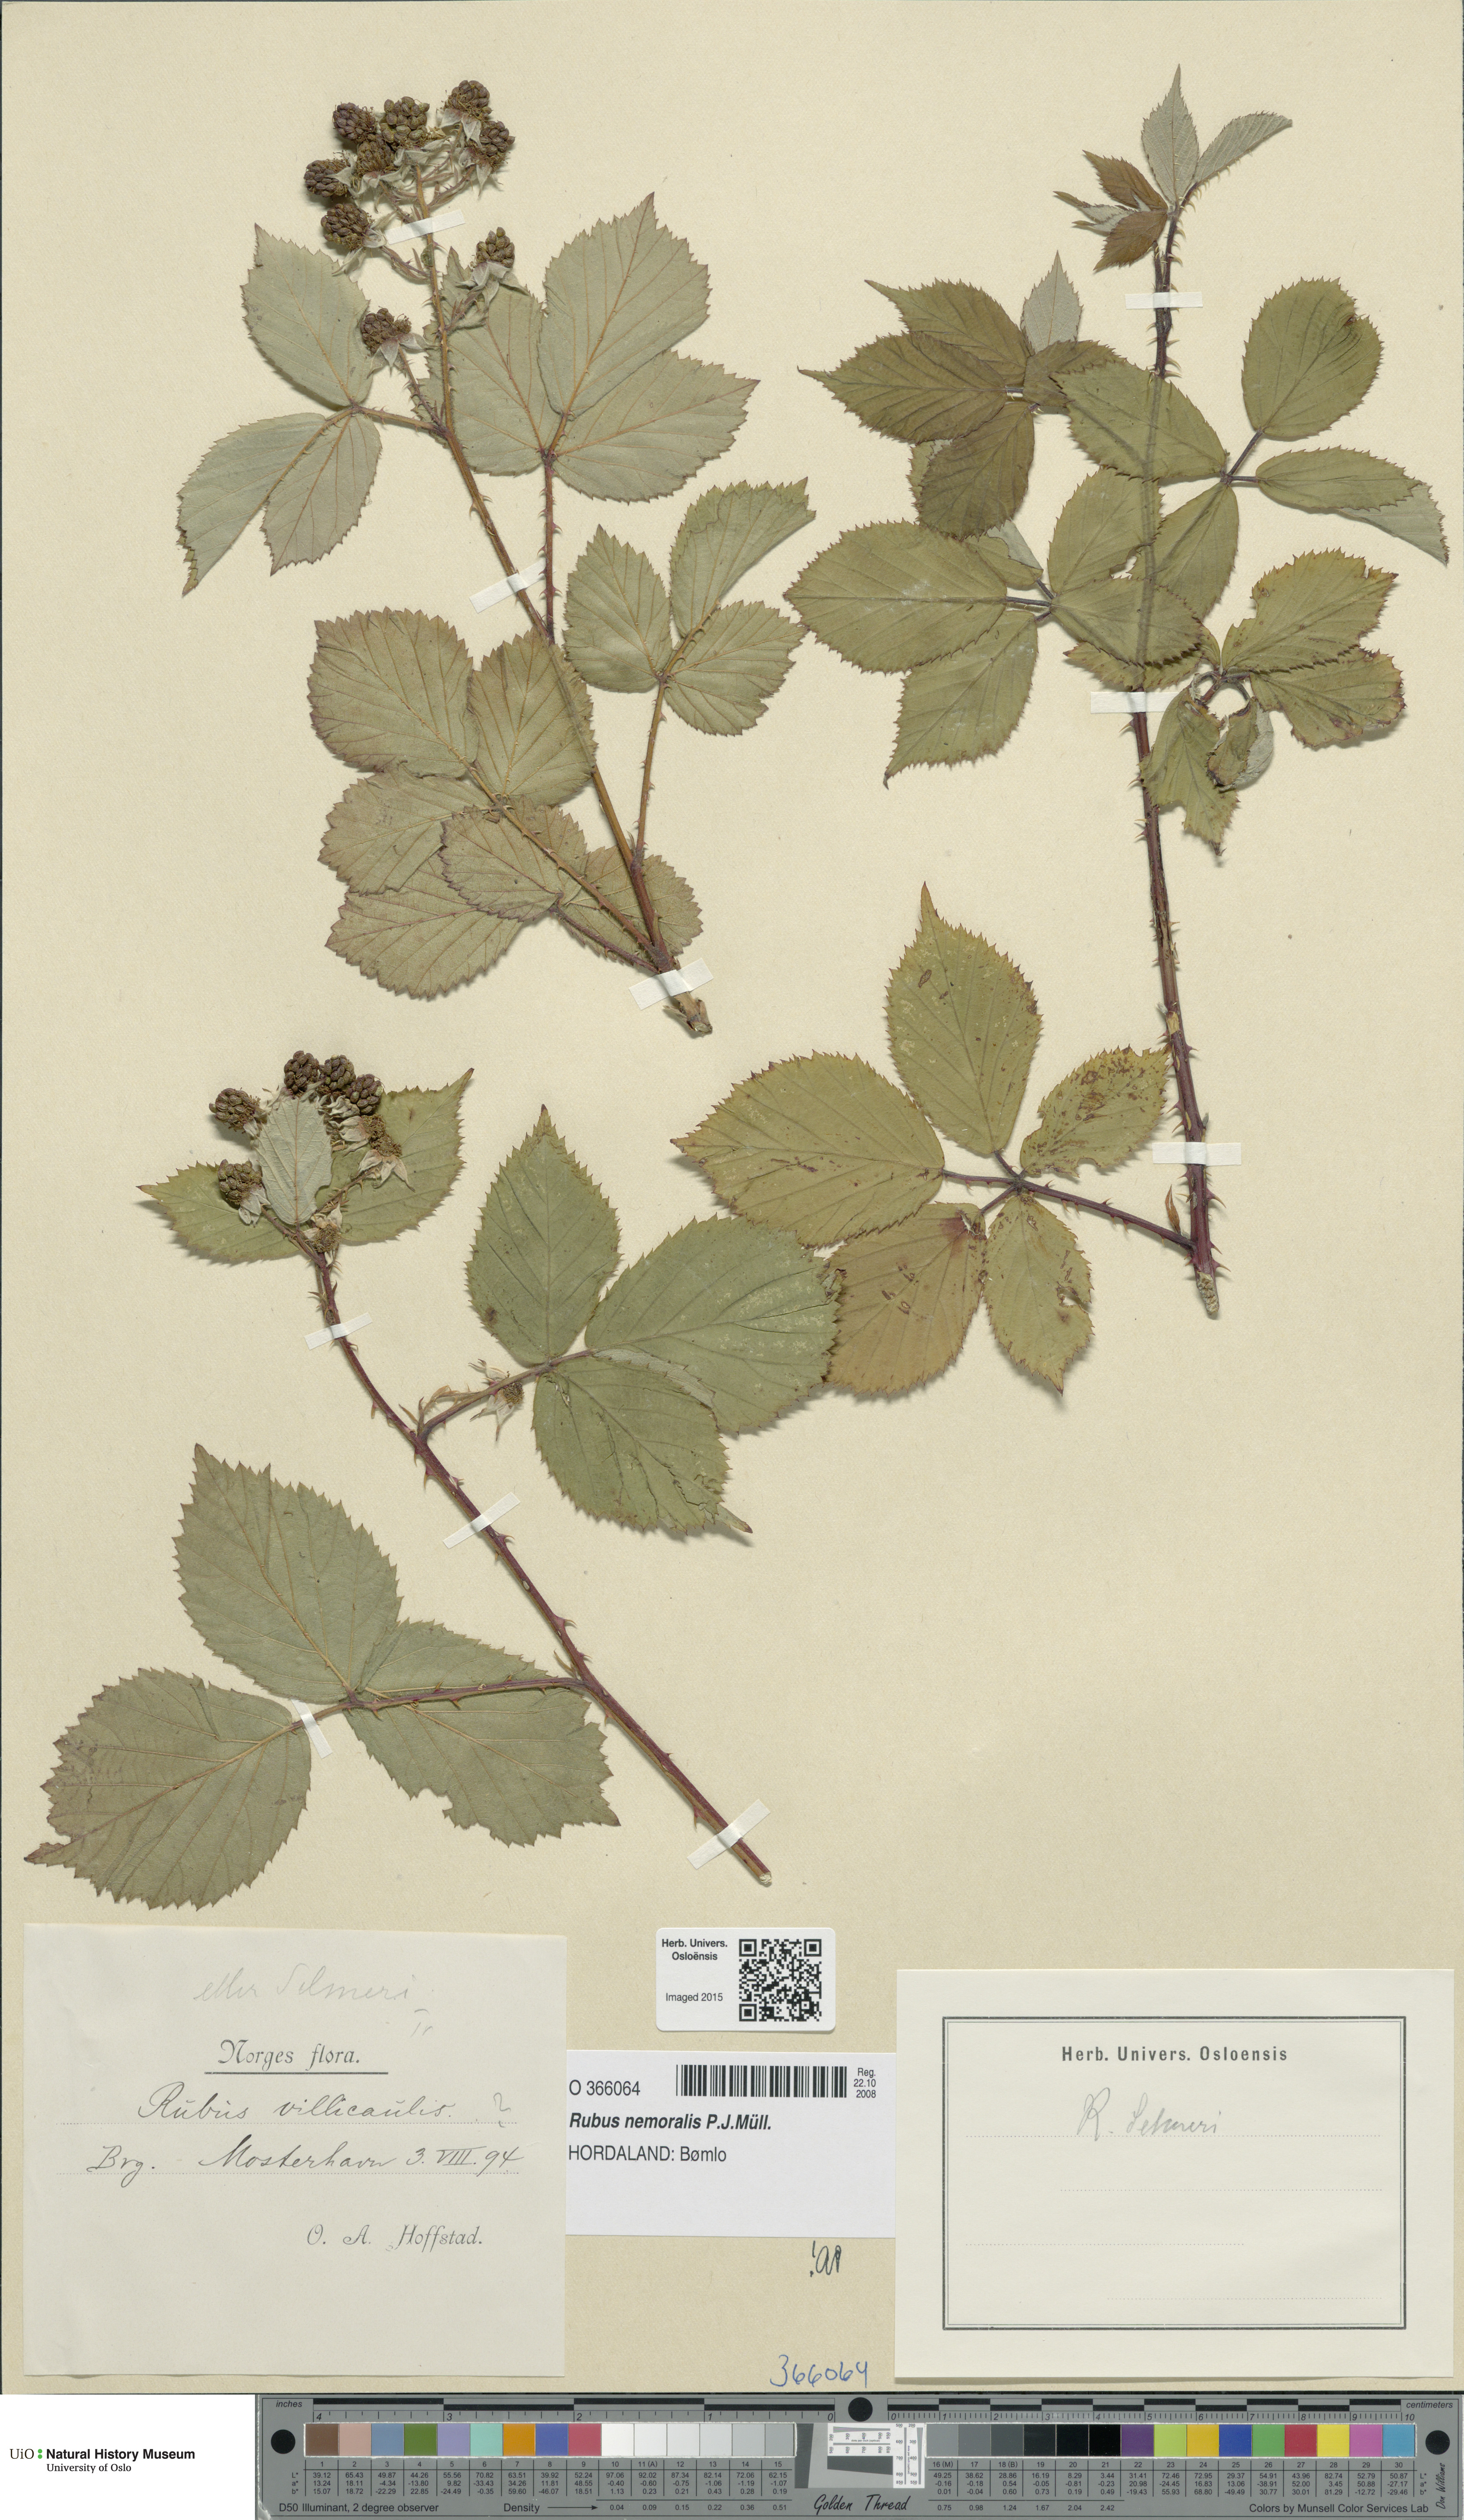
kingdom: Plantae
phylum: Tracheophyta
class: Magnoliopsida
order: Rosales
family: Rosaceae
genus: Rubus
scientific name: Rubus nemoralis
